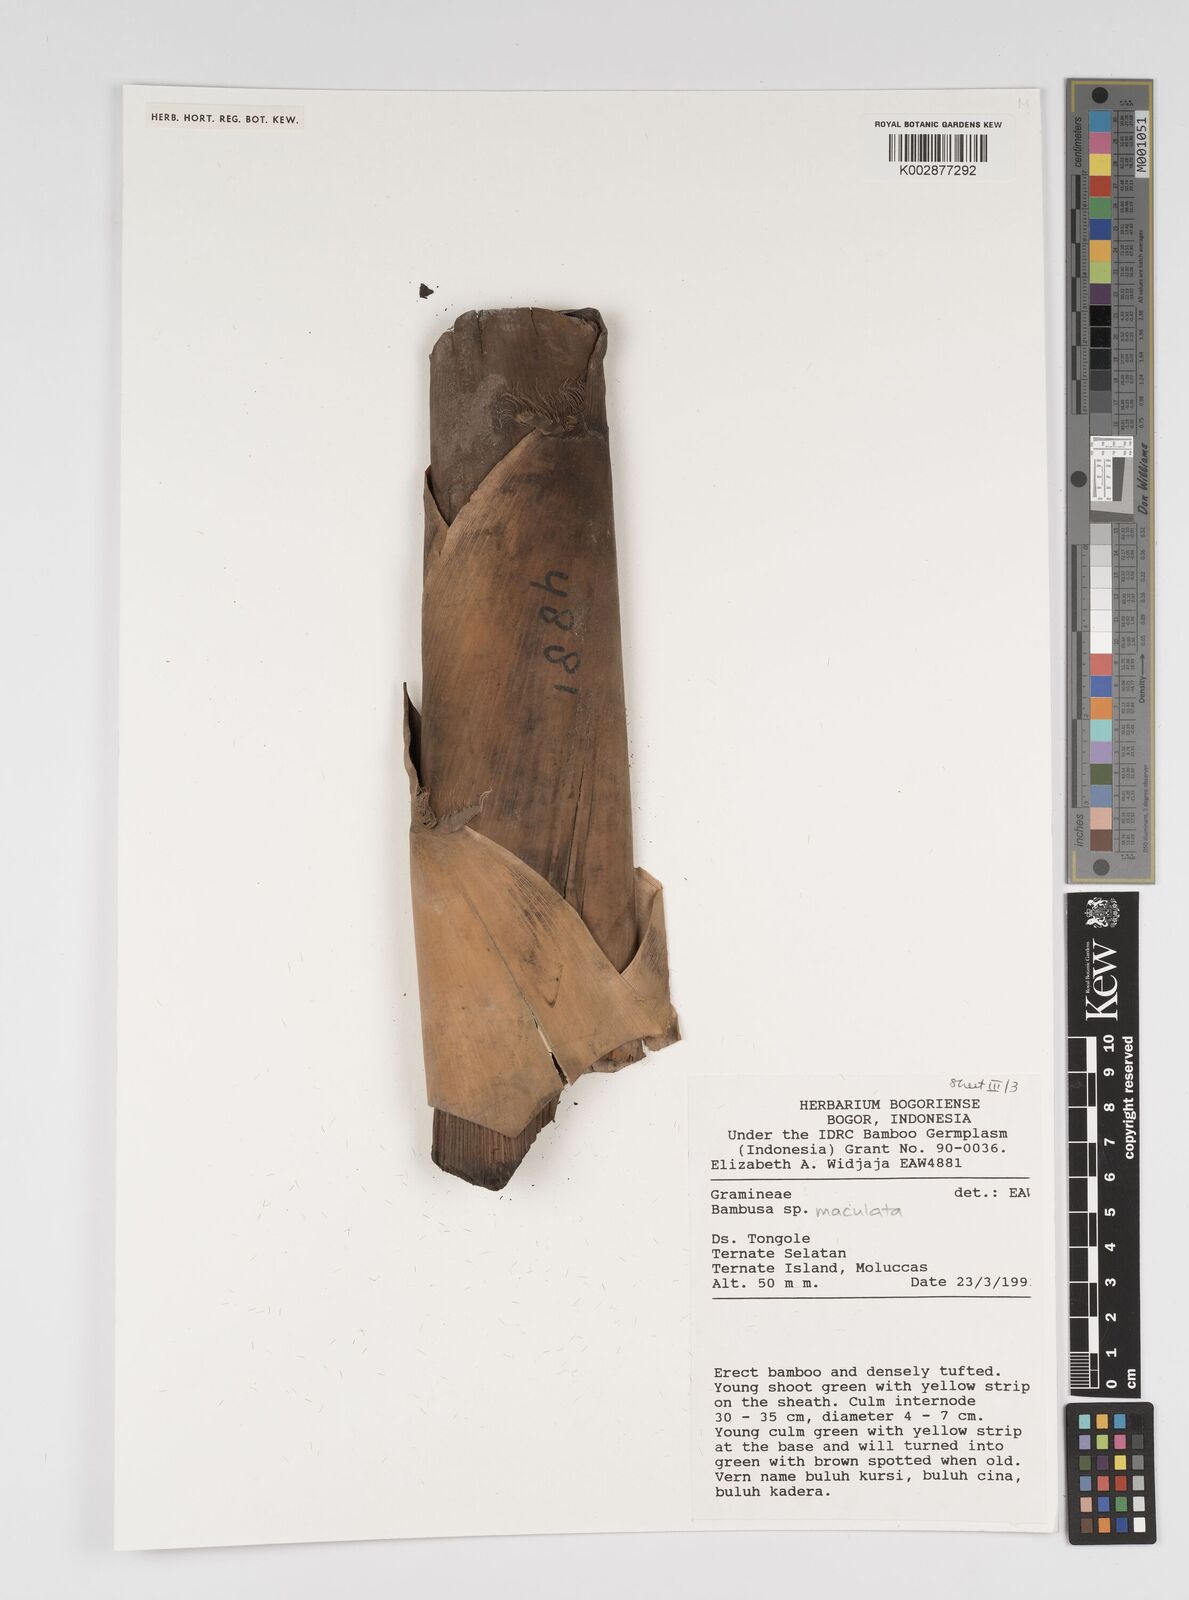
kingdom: Plantae
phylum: Tracheophyta
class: Liliopsida
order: Poales
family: Poaceae
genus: Bambusa
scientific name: Bambusa maculata
